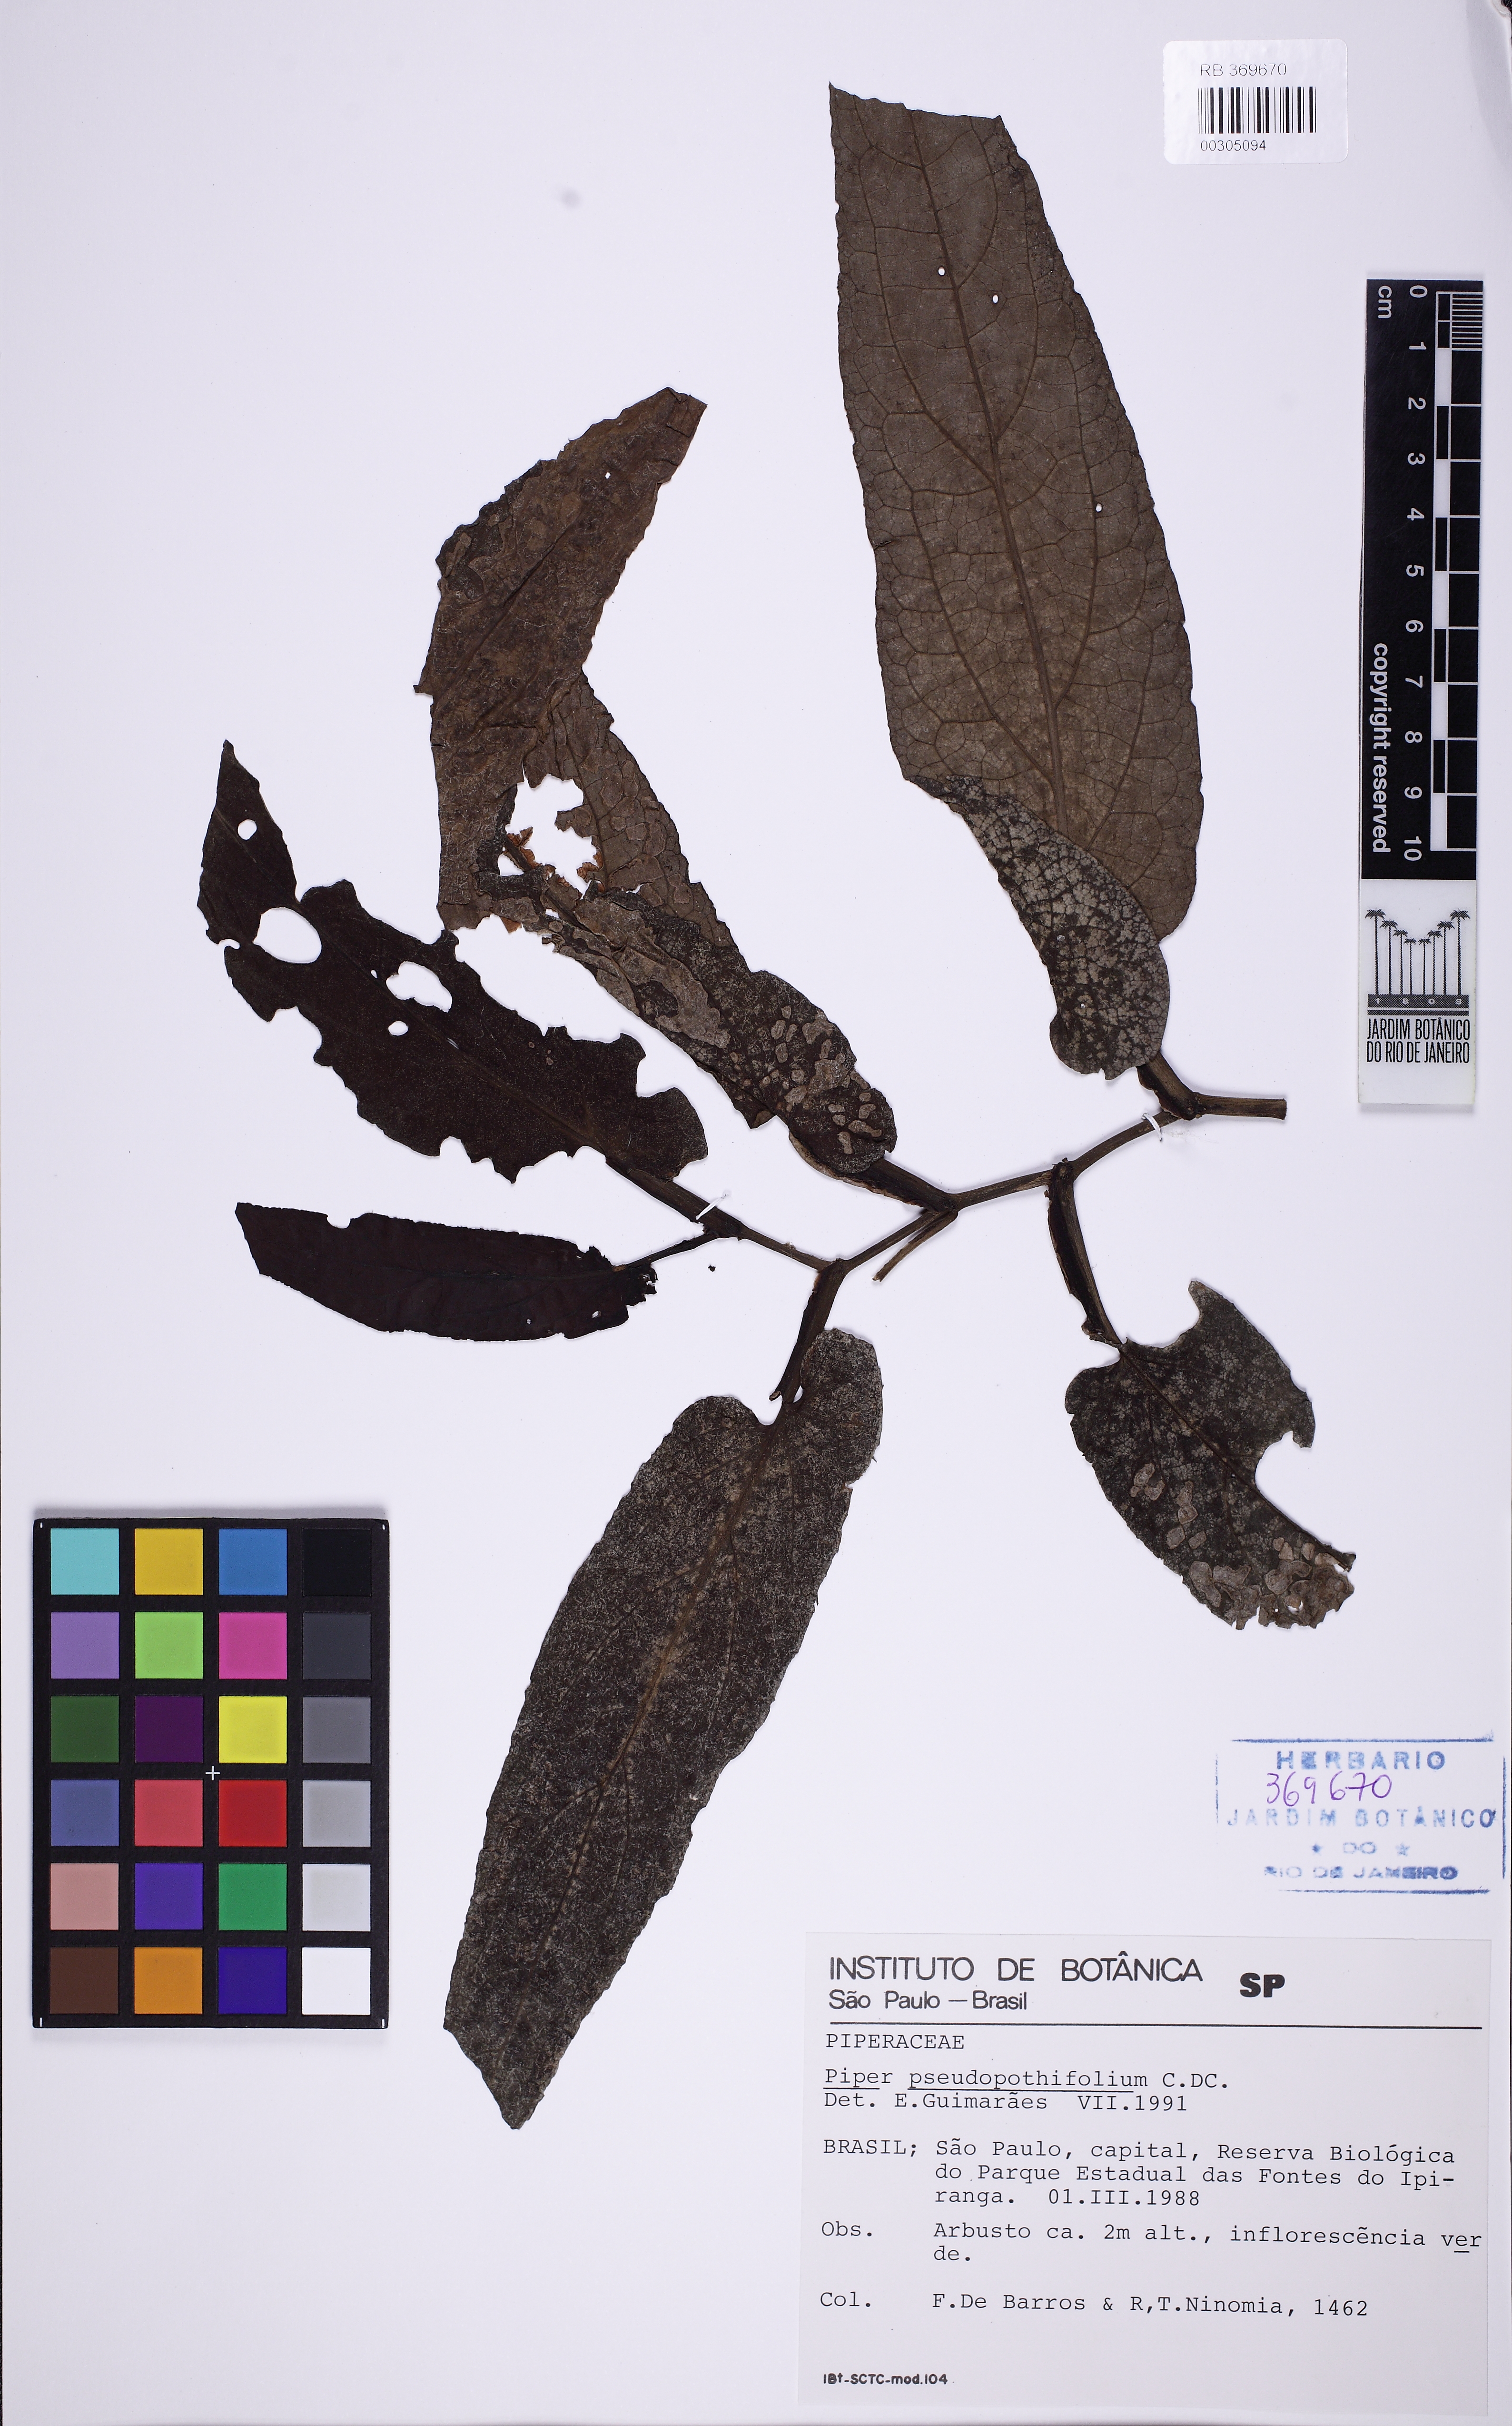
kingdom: Plantae
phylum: Tracheophyta
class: Magnoliopsida
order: Piperales
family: Piperaceae
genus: Piper
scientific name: Piper pseudopothifolium
